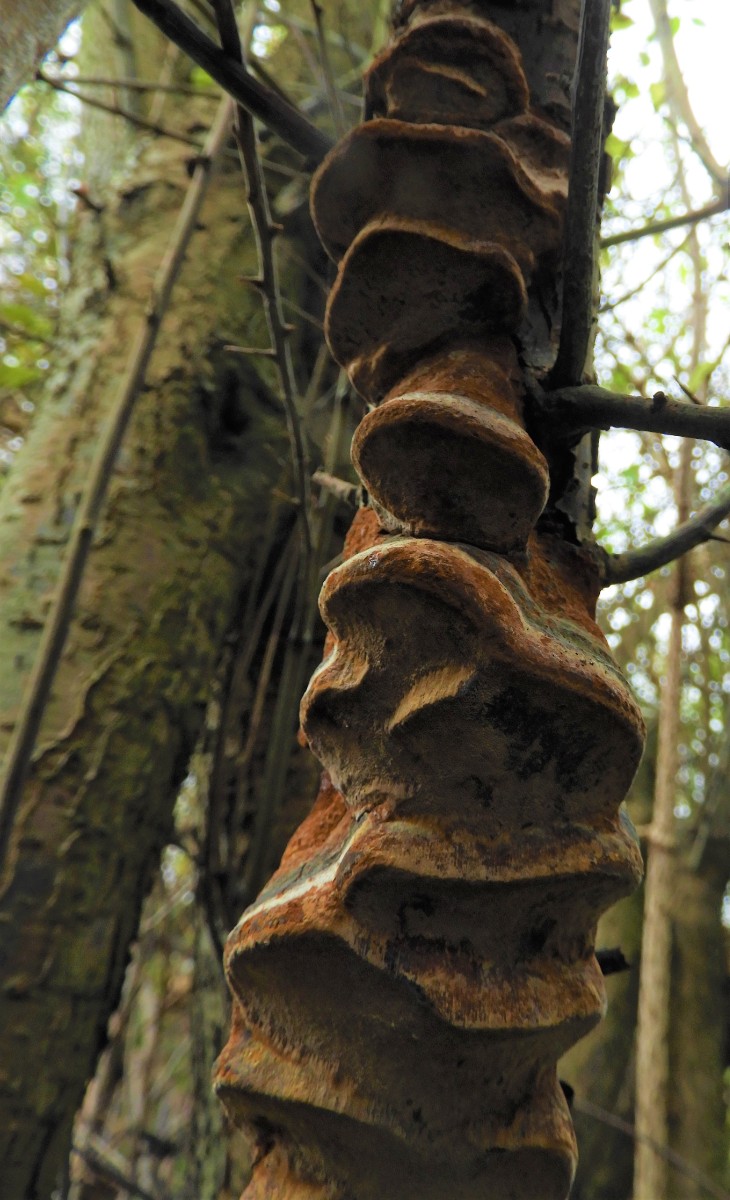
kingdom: Fungi
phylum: Basidiomycota
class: Agaricomycetes
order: Hymenochaetales
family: Hymenochaetaceae
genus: Phellinus
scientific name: Phellinus pomaceus
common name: blomme-ildporesvamp
